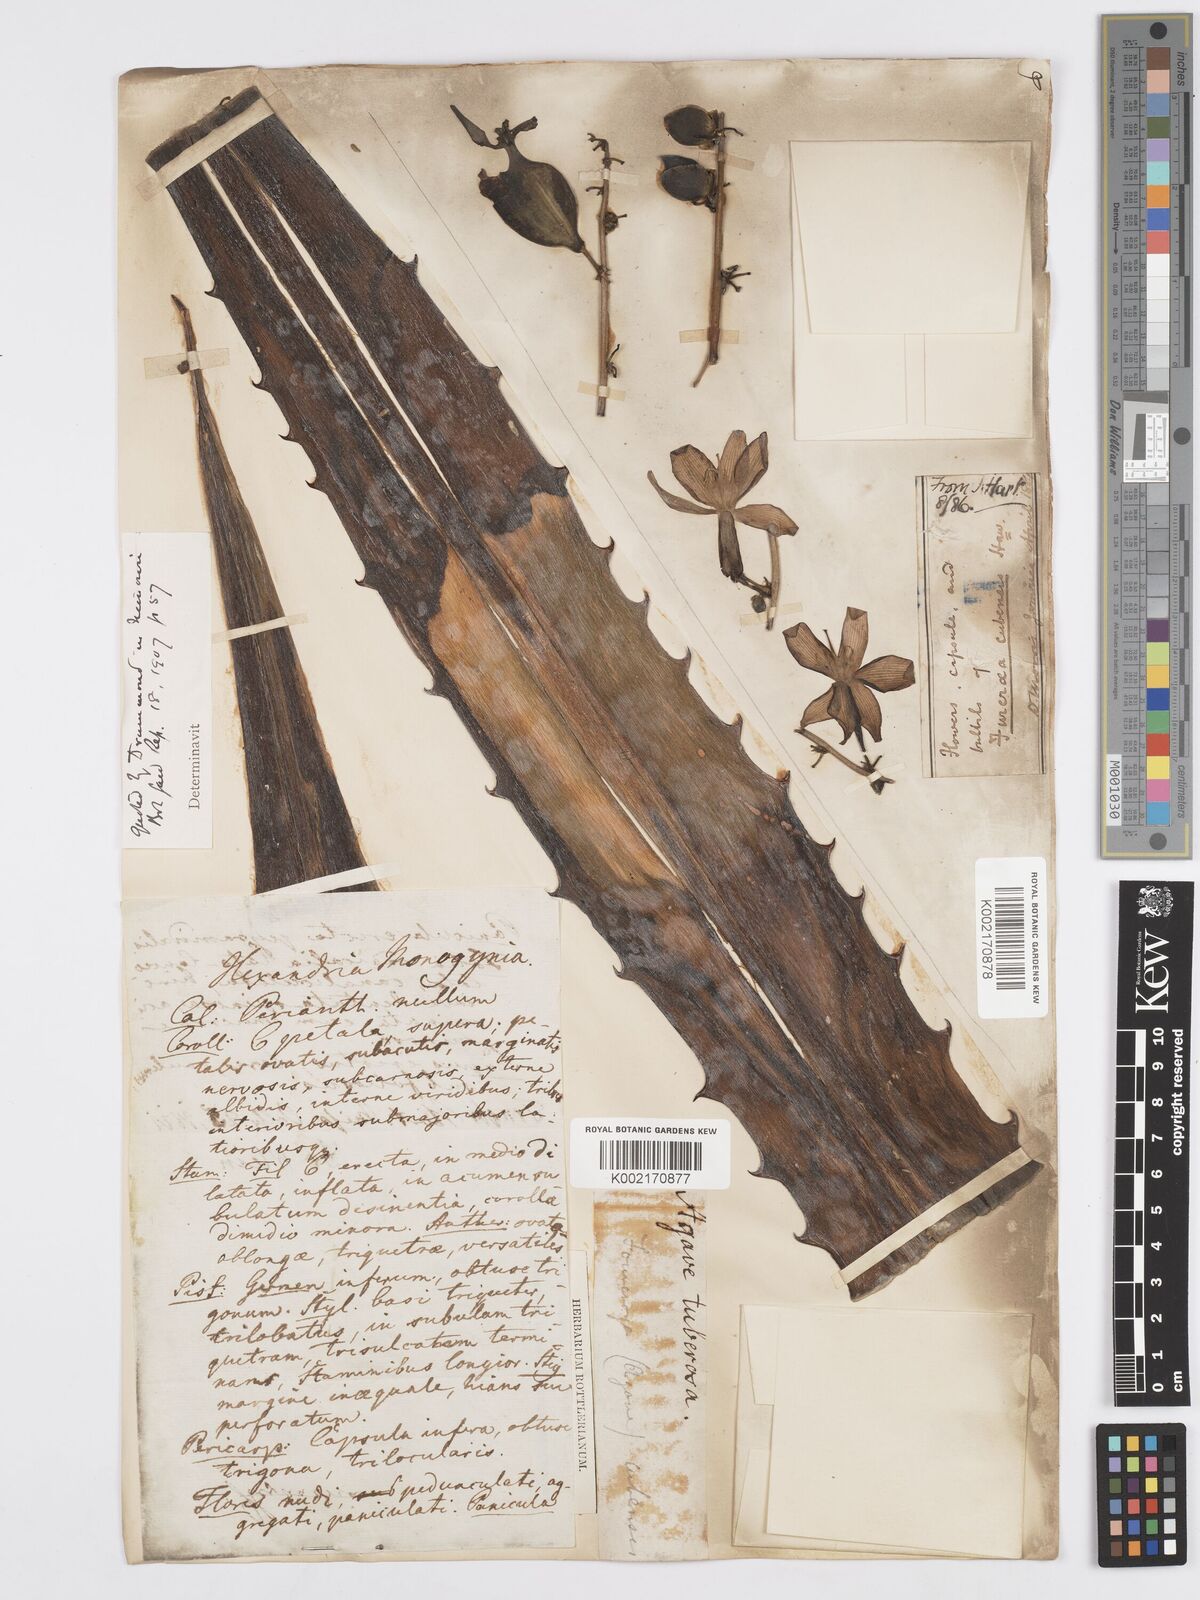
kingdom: Plantae
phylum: Tracheophyta
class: Liliopsida
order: Asparagales
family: Asparagaceae
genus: Furcraea
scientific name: Furcraea stricta
